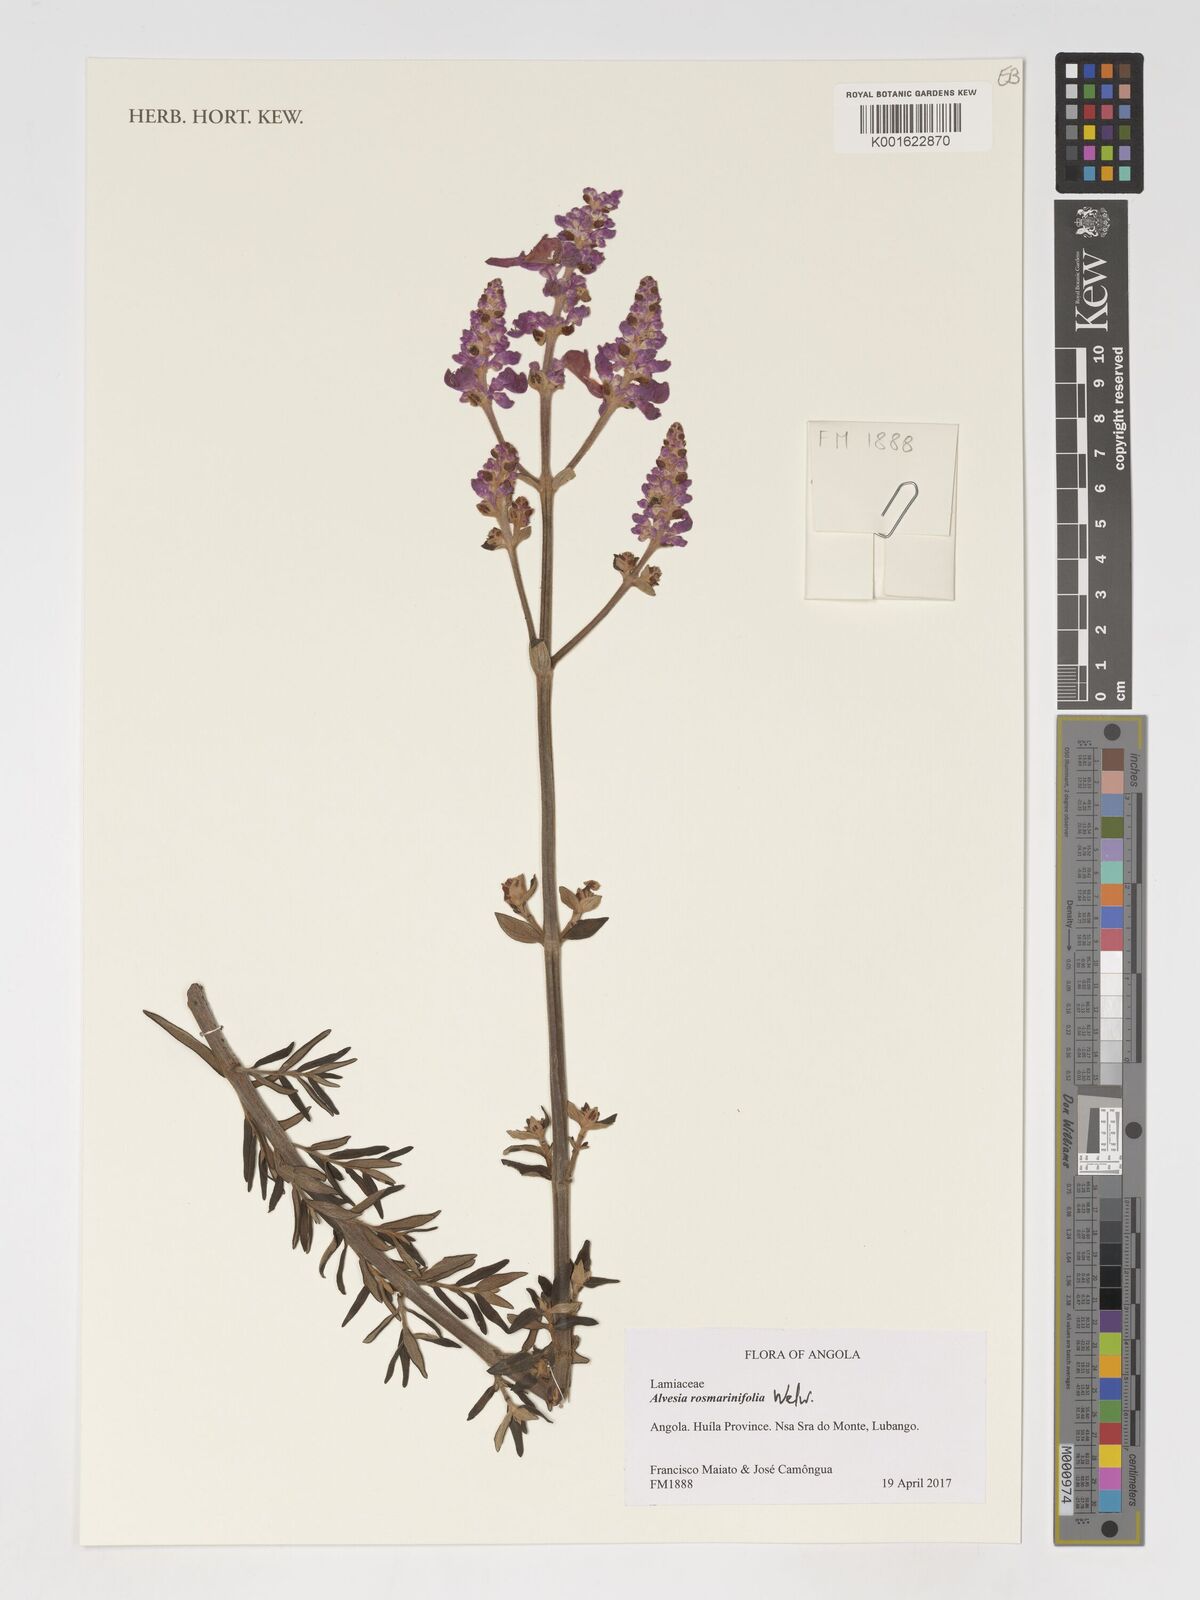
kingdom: Plantae
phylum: Tracheophyta
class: Magnoliopsida
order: Lamiales
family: Lamiaceae
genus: Alvesia
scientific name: Alvesia rosmarinifolia
